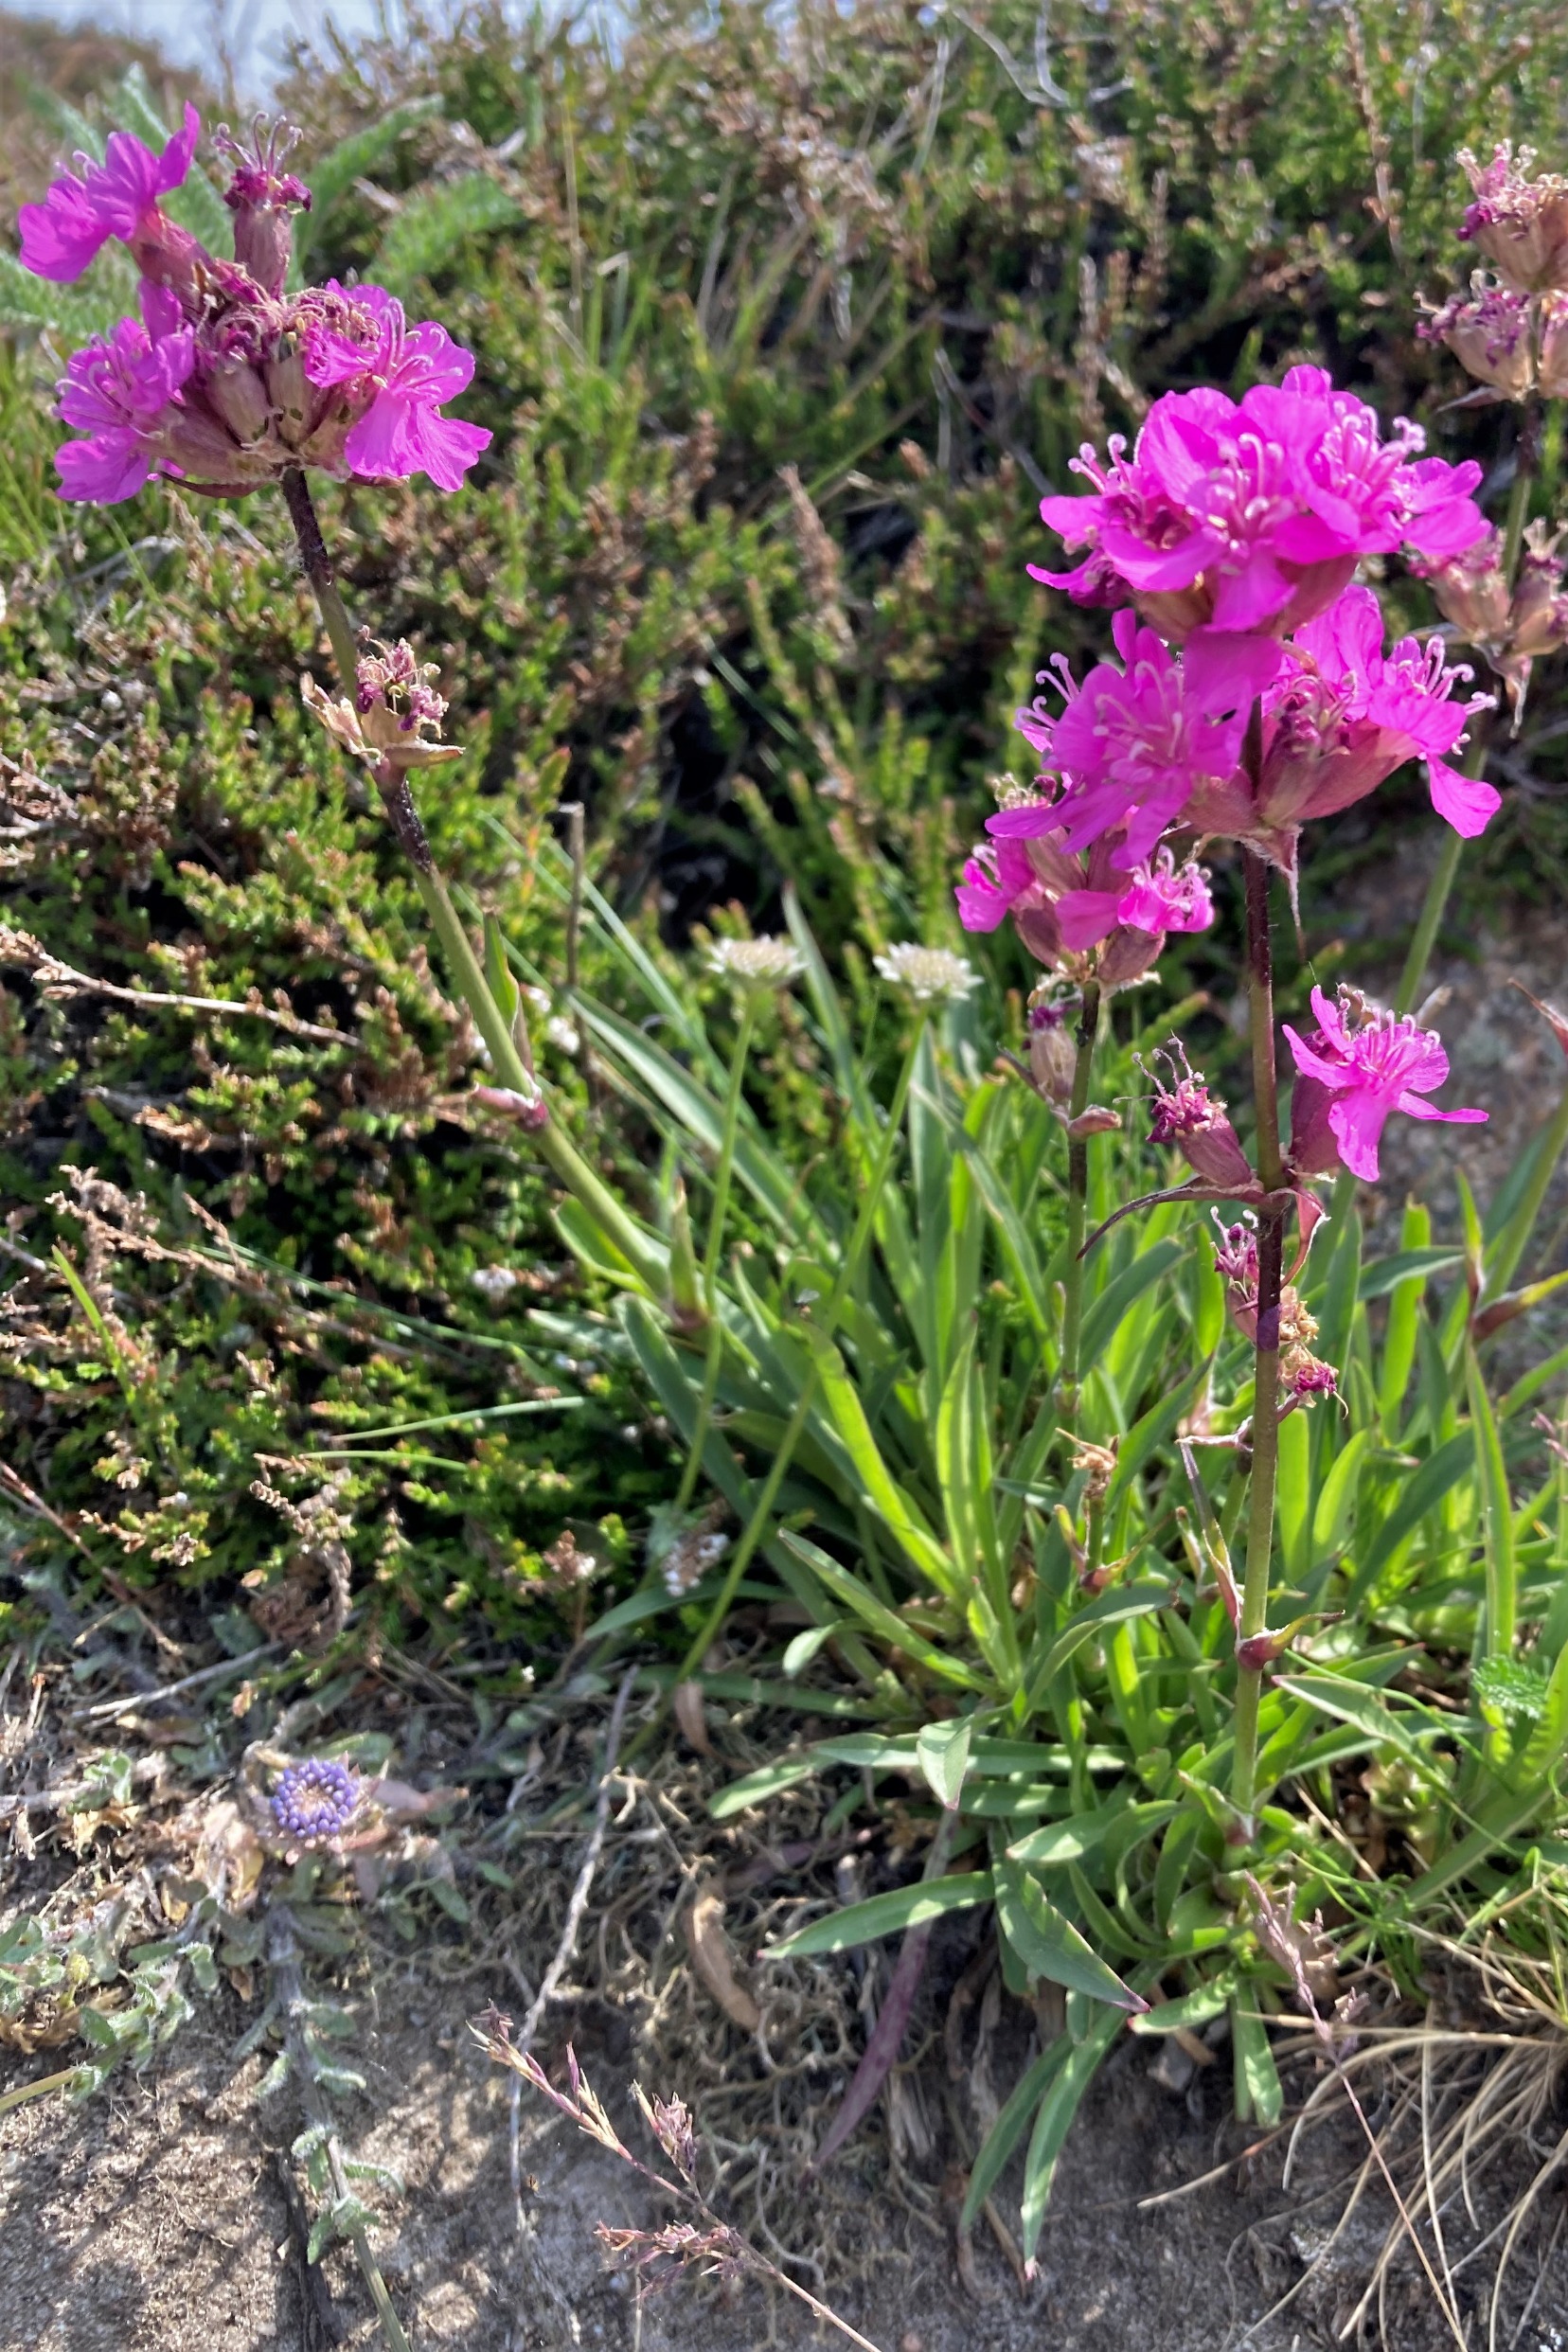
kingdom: Plantae
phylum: Tracheophyta
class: Magnoliopsida
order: Caryophyllales
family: Caryophyllaceae
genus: Viscaria
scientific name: Viscaria vulgaris
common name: Tjærenellike
